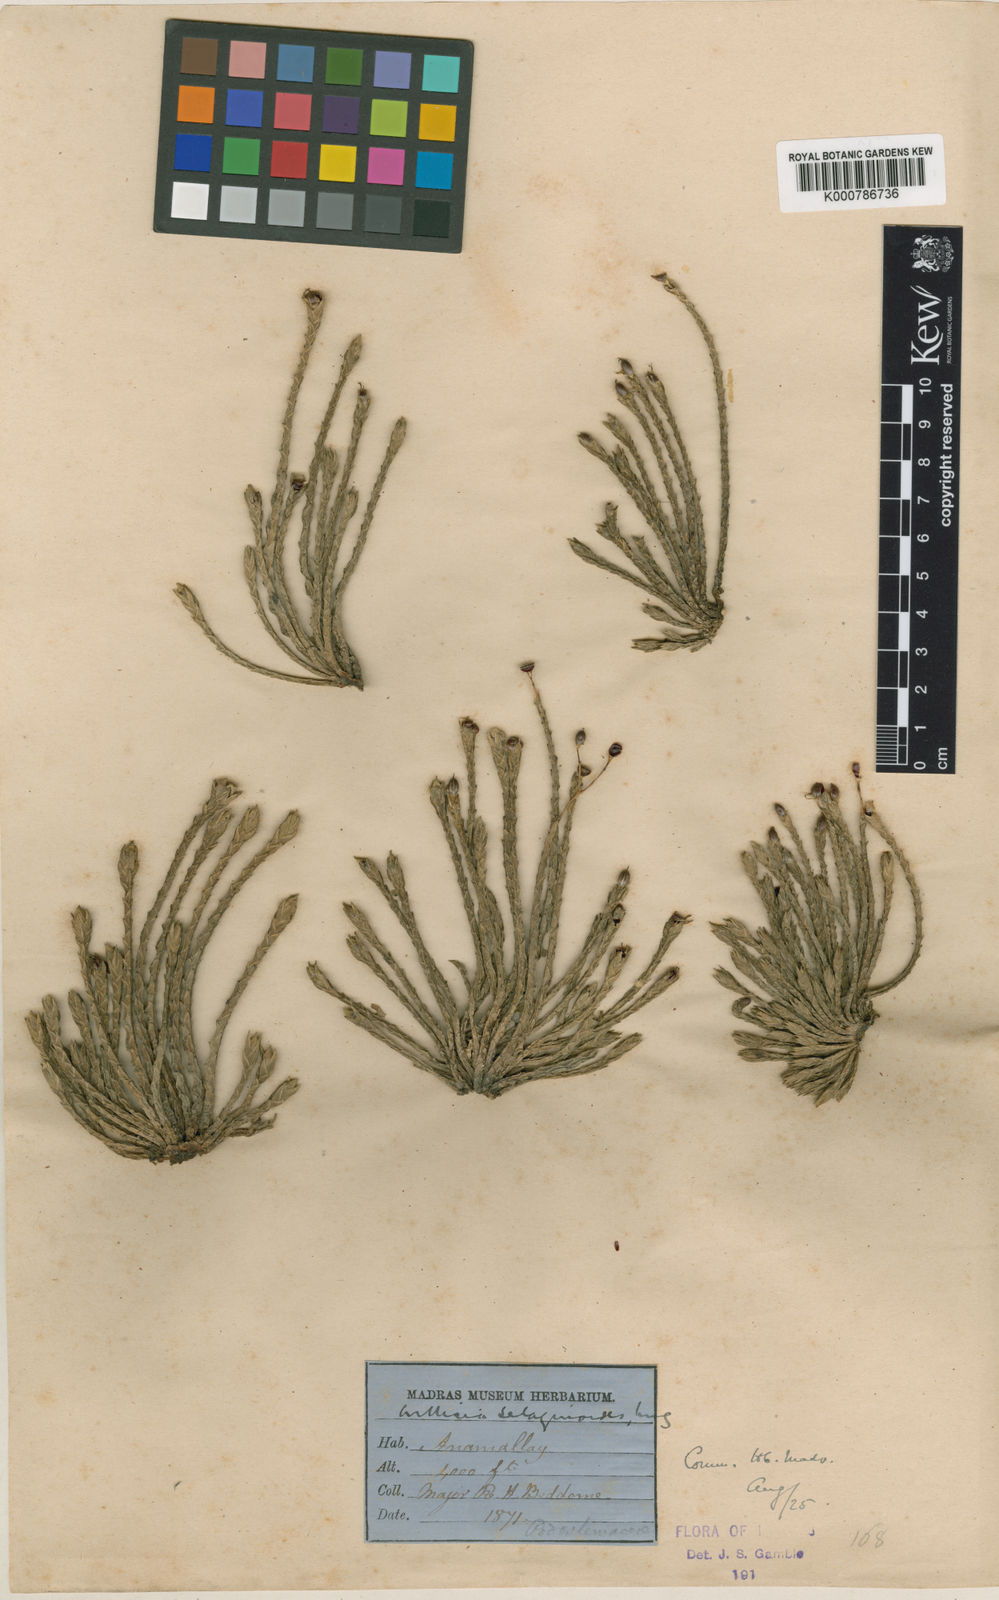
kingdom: Plantae
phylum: Tracheophyta
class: Magnoliopsida
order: Malpighiales
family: Podostemaceae
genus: Willisia
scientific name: Willisia selaginoides
